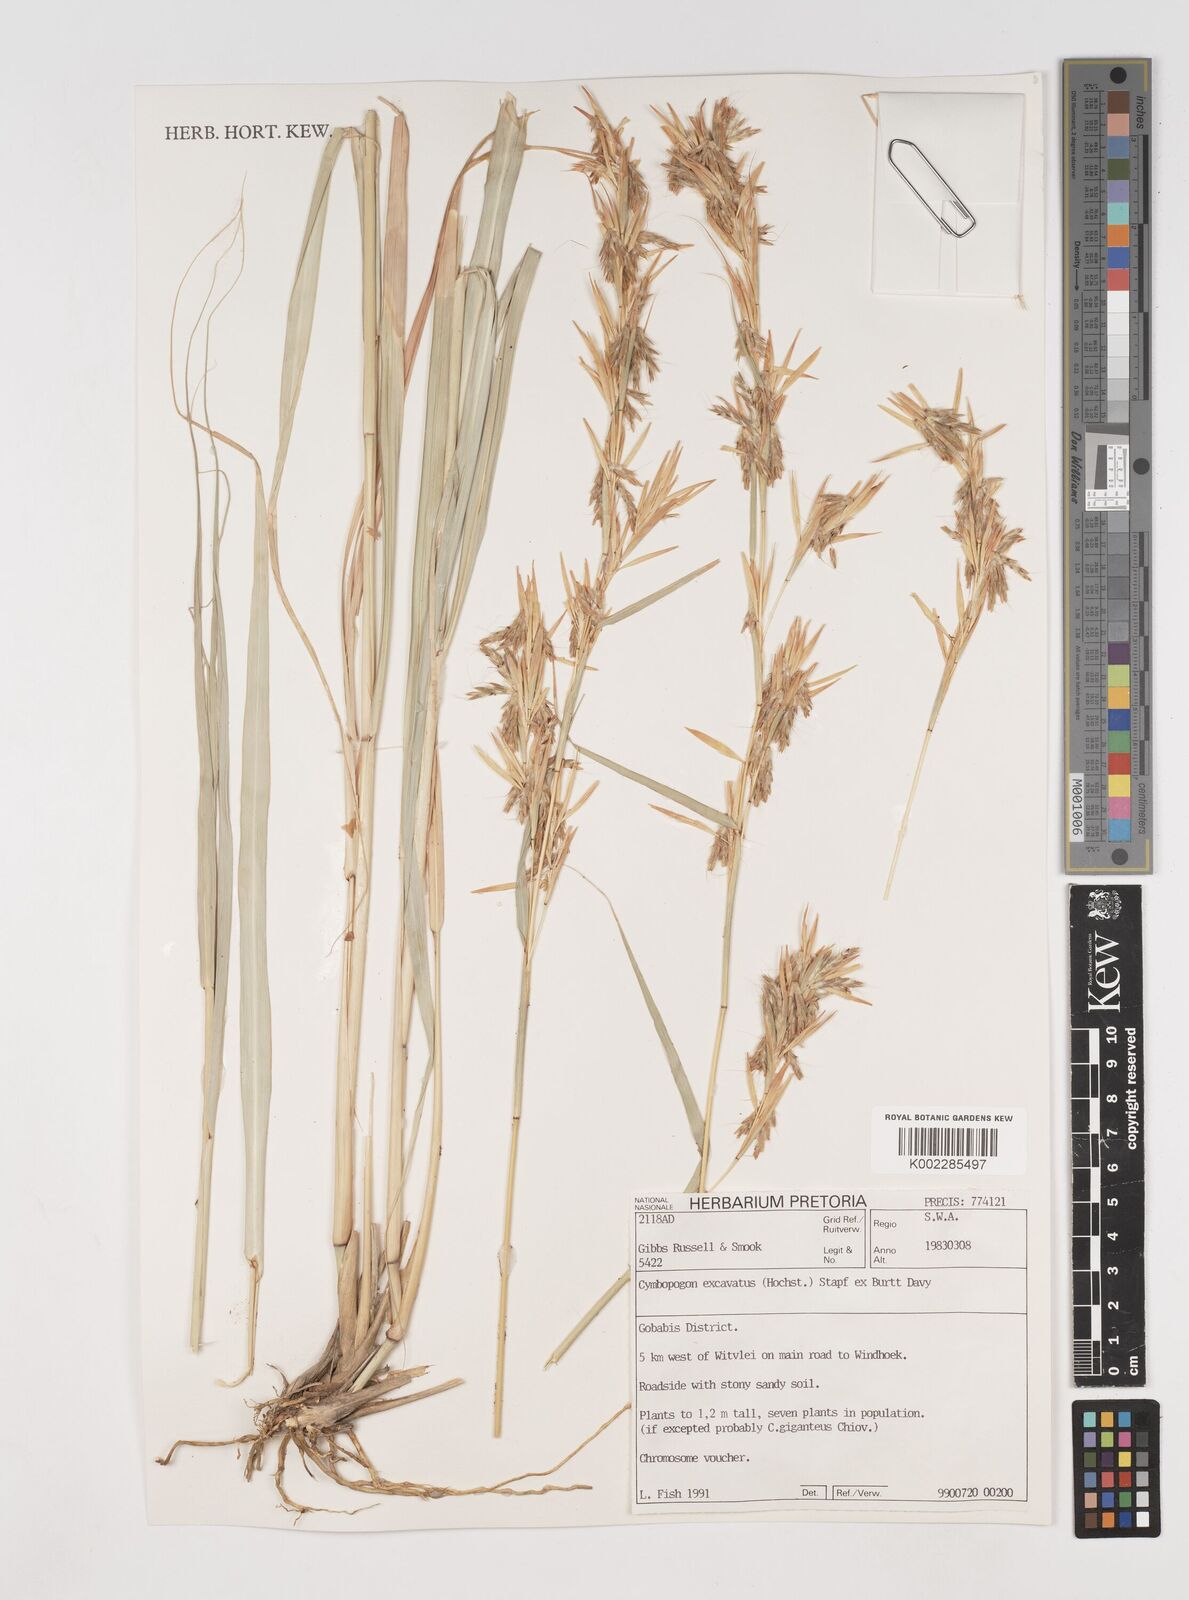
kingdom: Plantae
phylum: Tracheophyta
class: Liliopsida
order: Poales
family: Poaceae
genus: Cymbopogon
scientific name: Cymbopogon caesius
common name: Kachi grass
